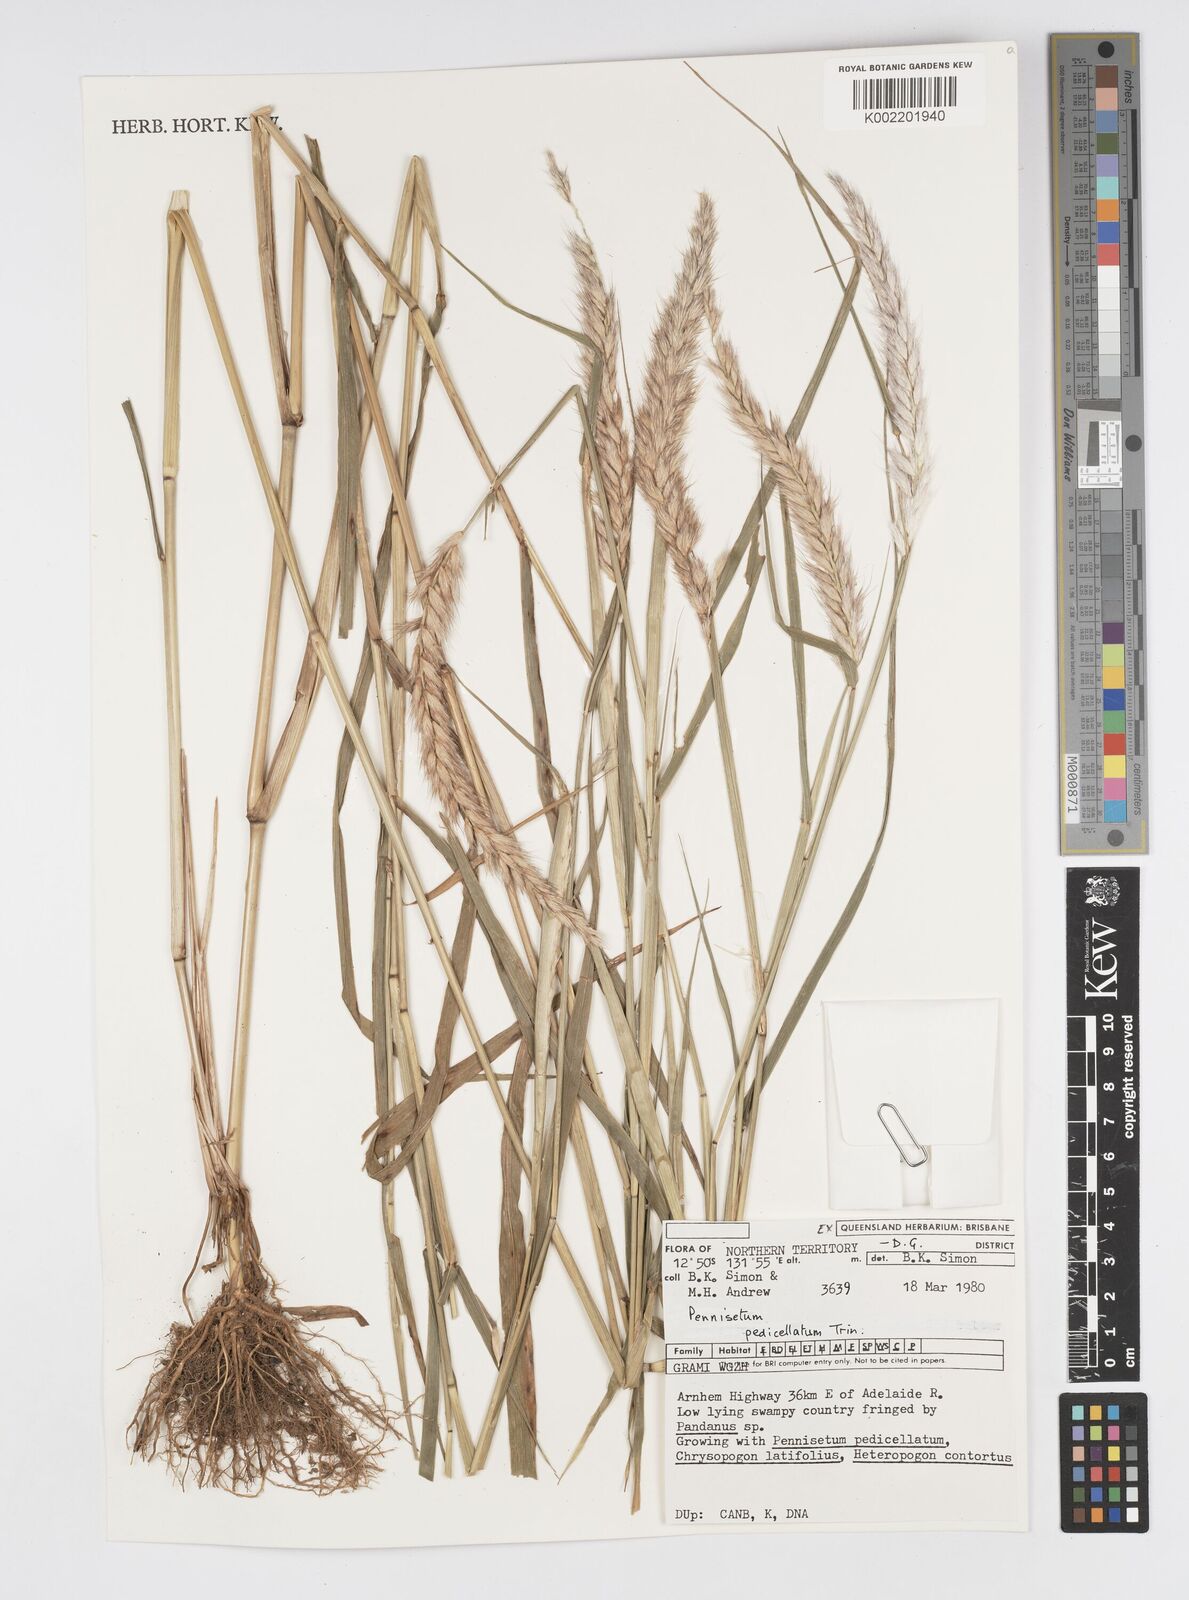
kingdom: Plantae
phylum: Tracheophyta
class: Liliopsida
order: Poales
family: Poaceae
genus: Cenchrus
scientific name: Cenchrus pedicellatus
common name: Hairy fountain grass
